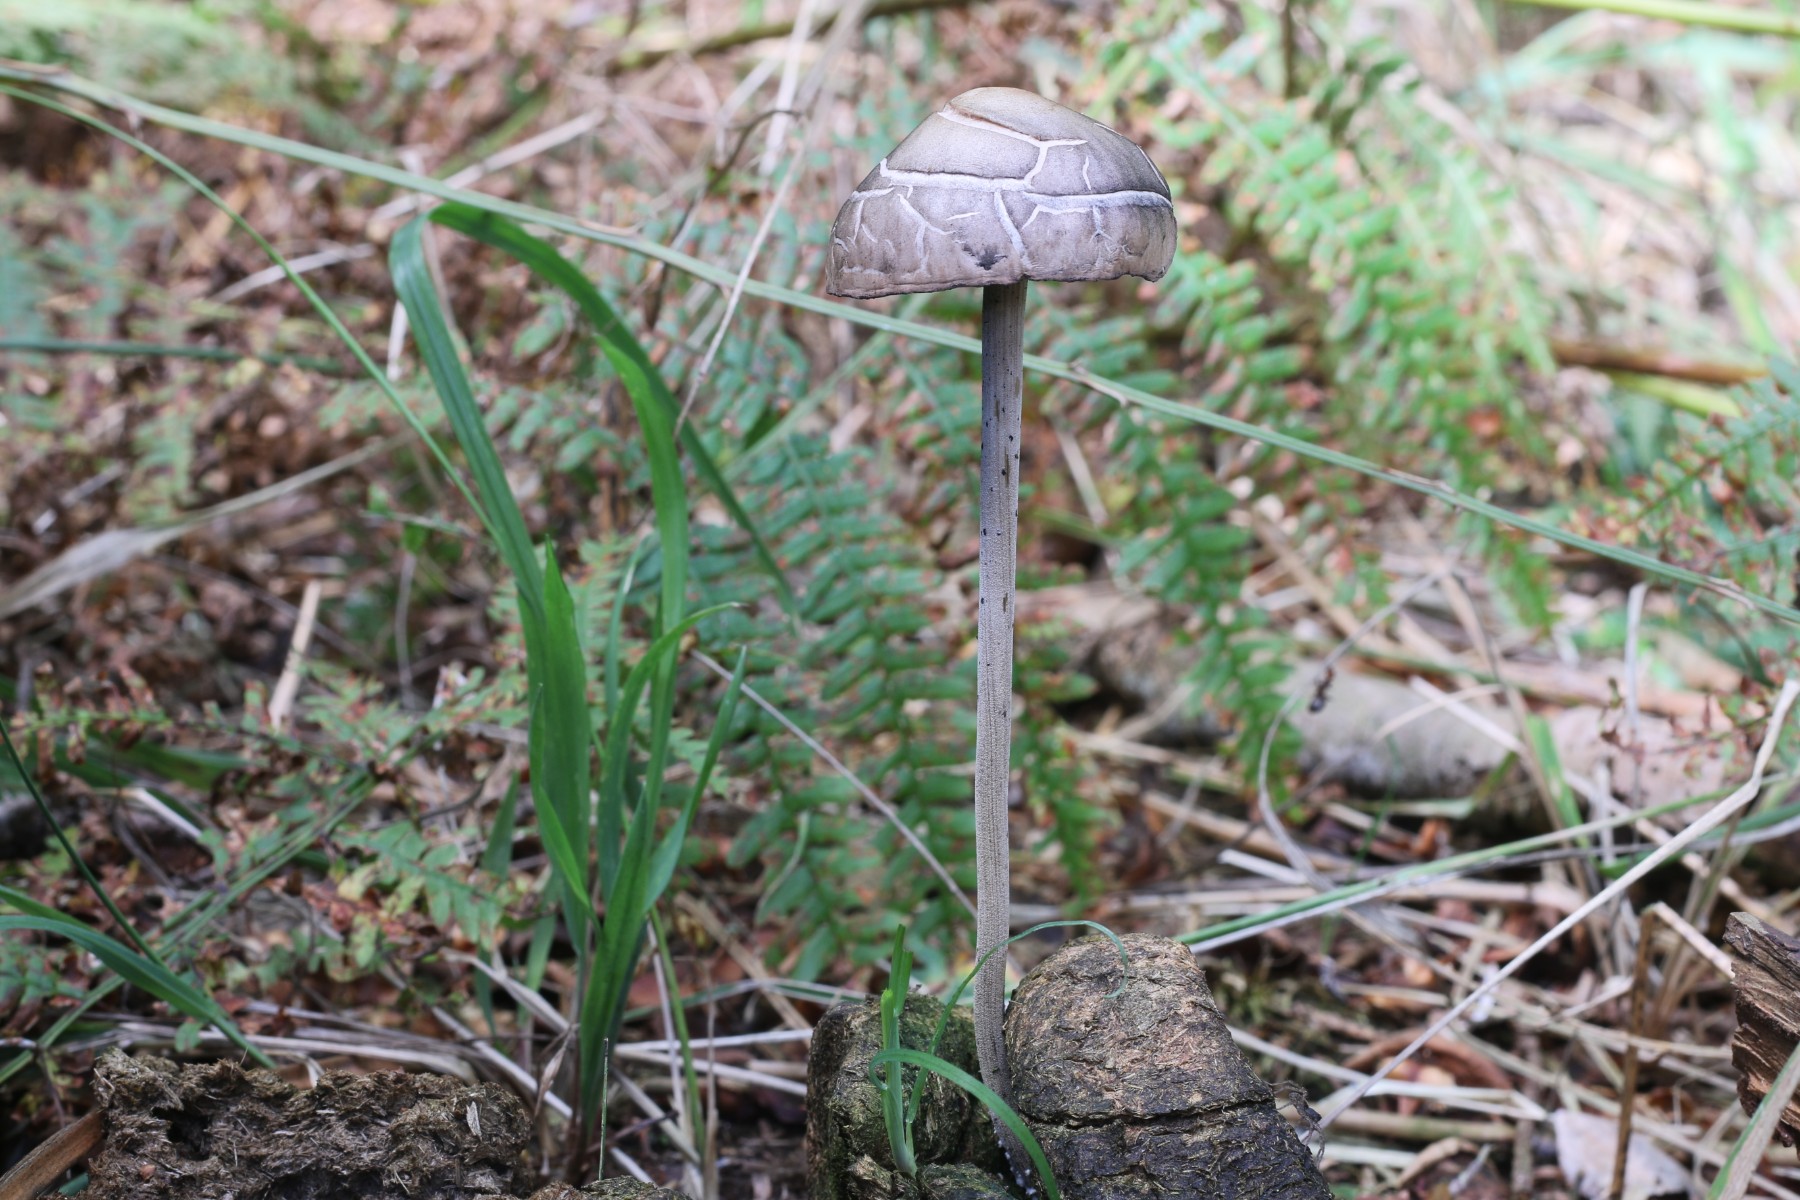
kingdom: Fungi
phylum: Basidiomycota
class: Agaricomycetes
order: Agaricales
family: Bolbitiaceae
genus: Panaeolus
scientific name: Panaeolus
